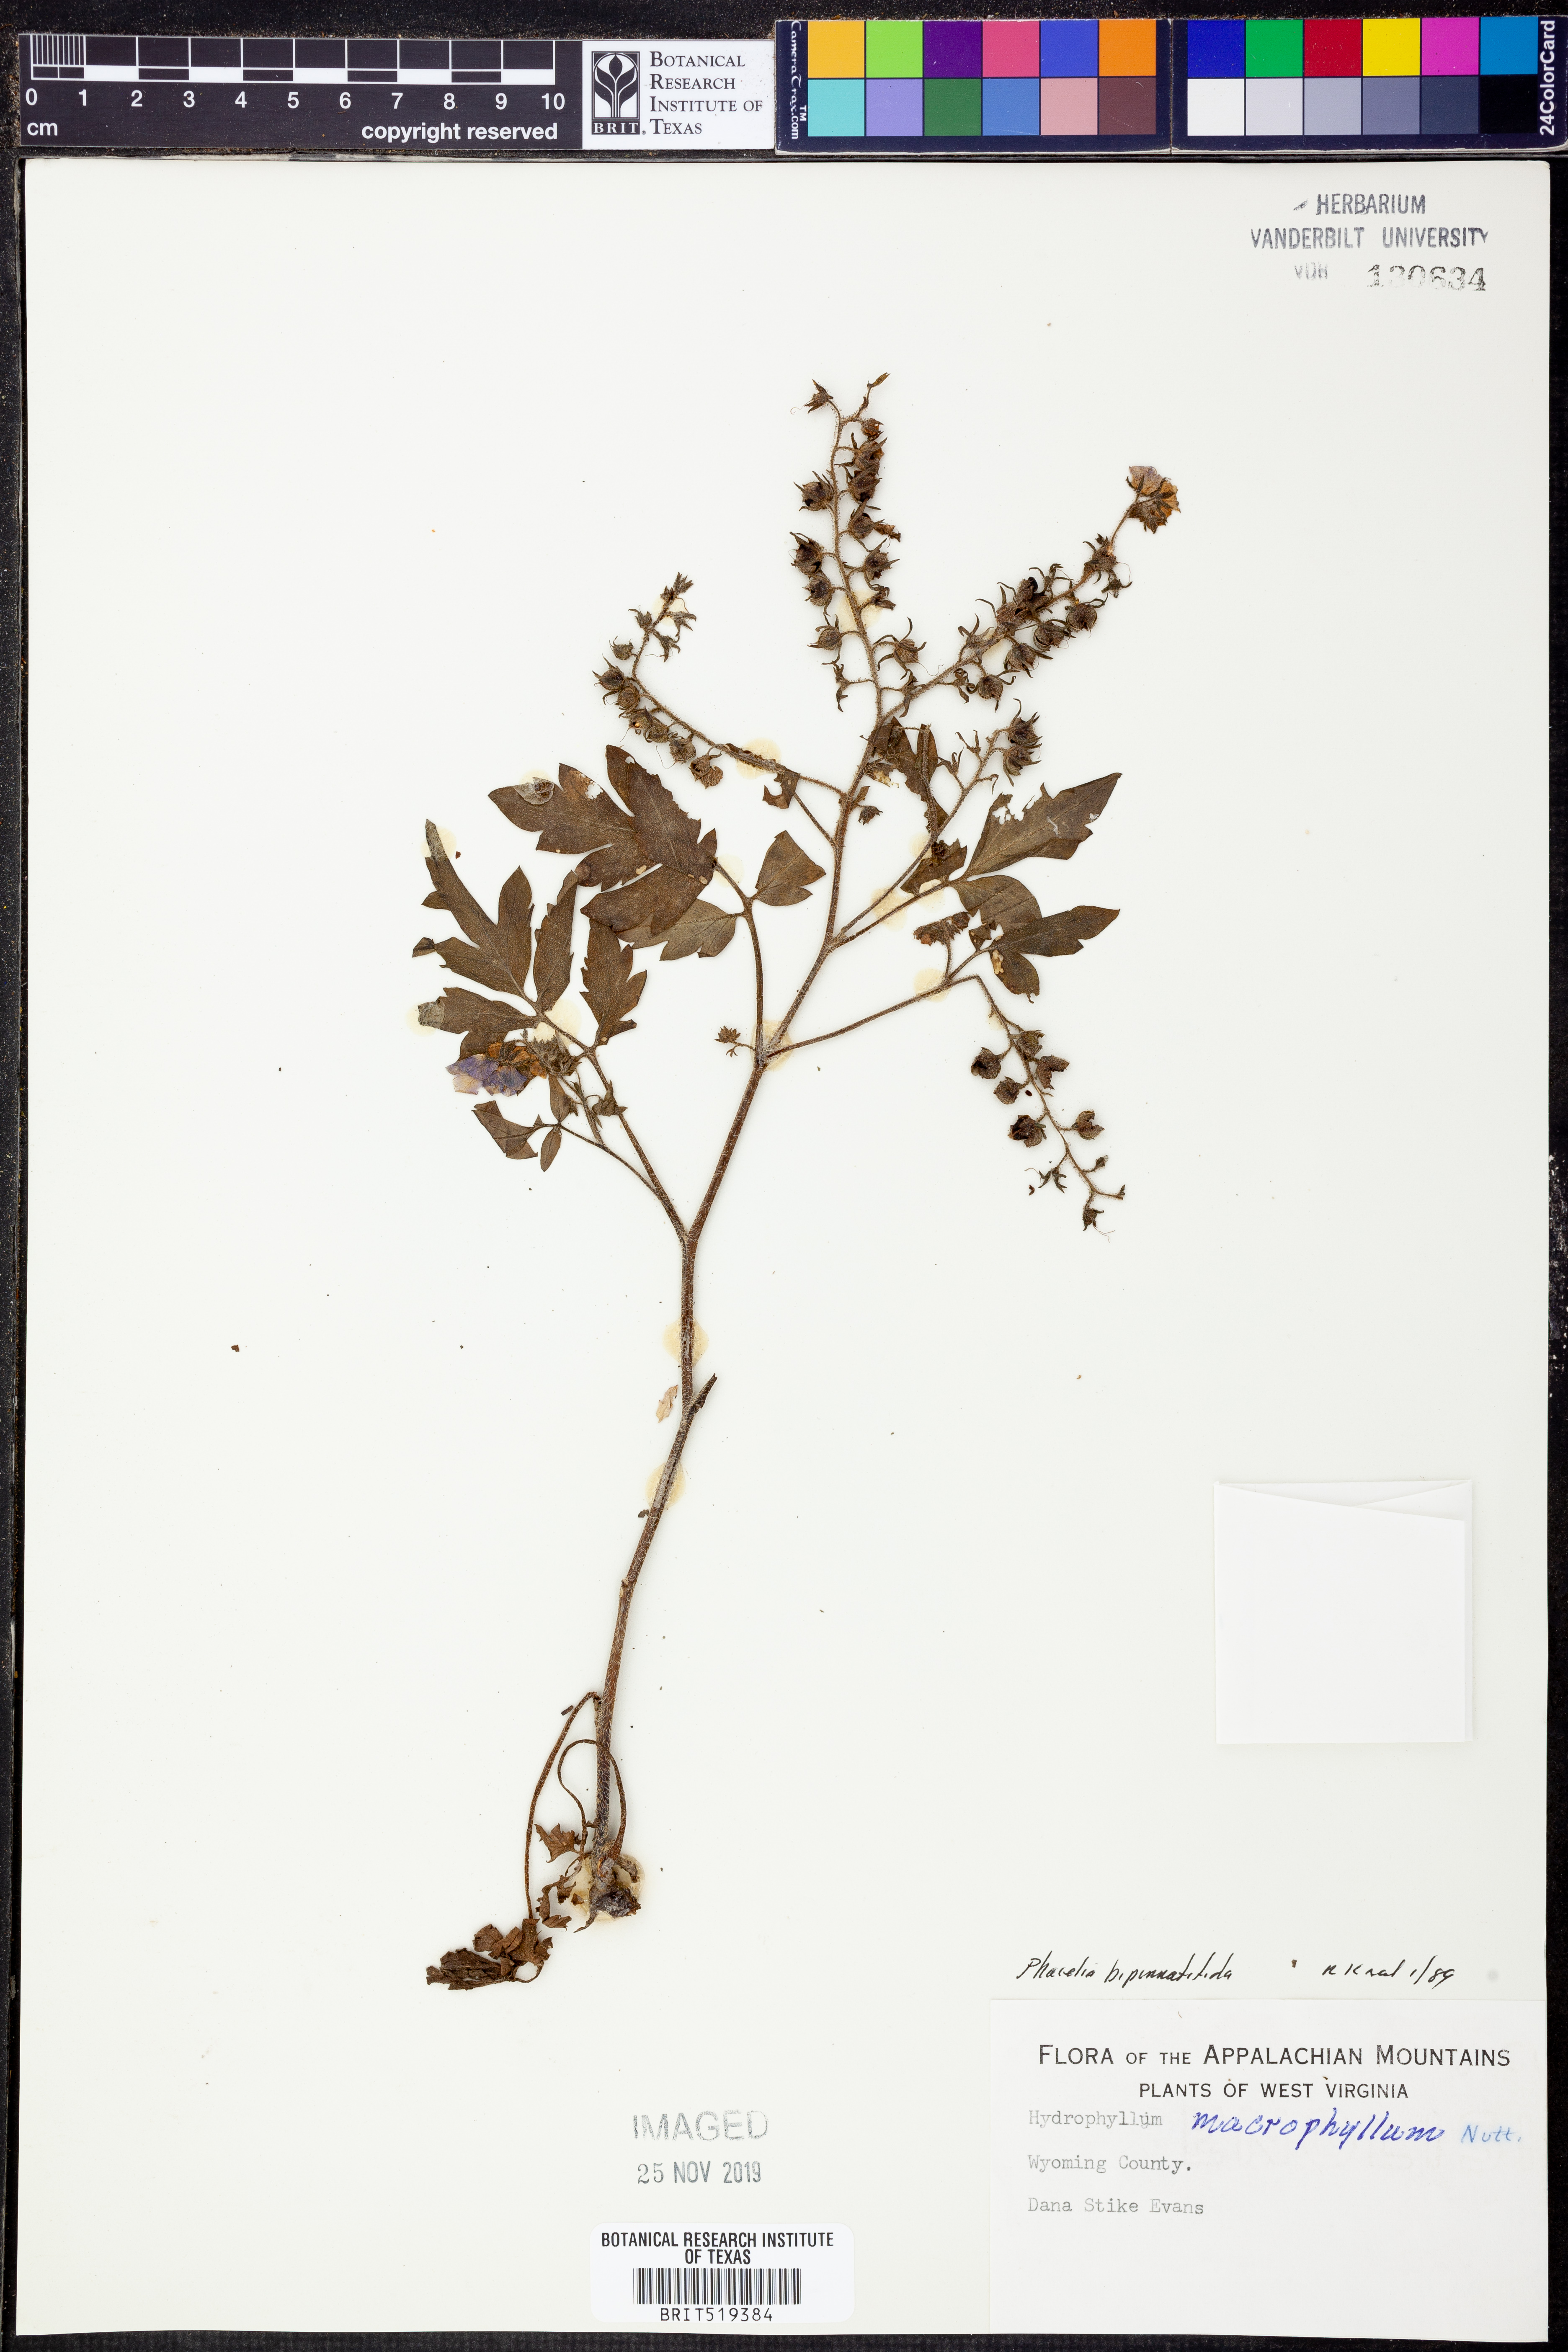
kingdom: Plantae
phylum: Tracheophyta
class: Magnoliopsida
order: Boraginales
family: Hydrophyllaceae
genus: Phacelia
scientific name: Phacelia bipinnatifida
